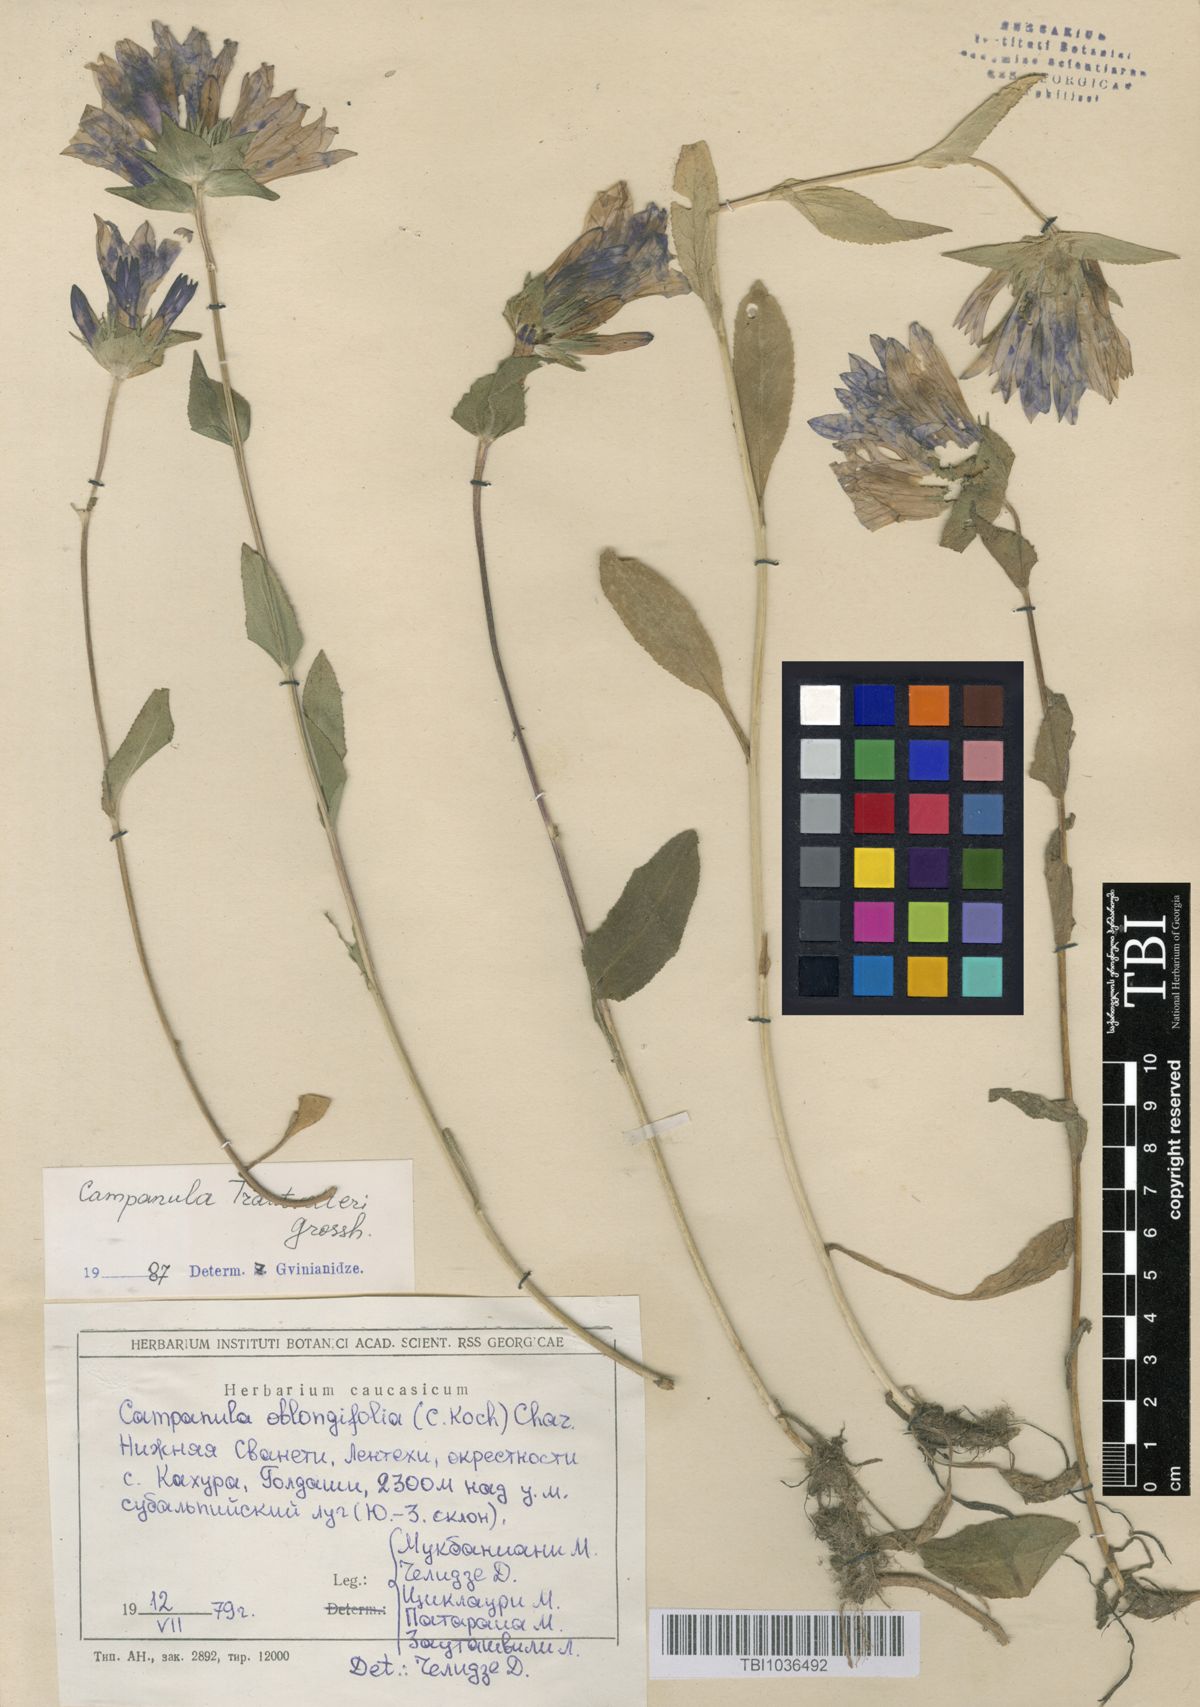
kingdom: Plantae
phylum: Tracheophyta
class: Magnoliopsida
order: Asterales
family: Campanulaceae
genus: Campanula
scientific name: Campanula glomerata
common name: Clustered bellflower
